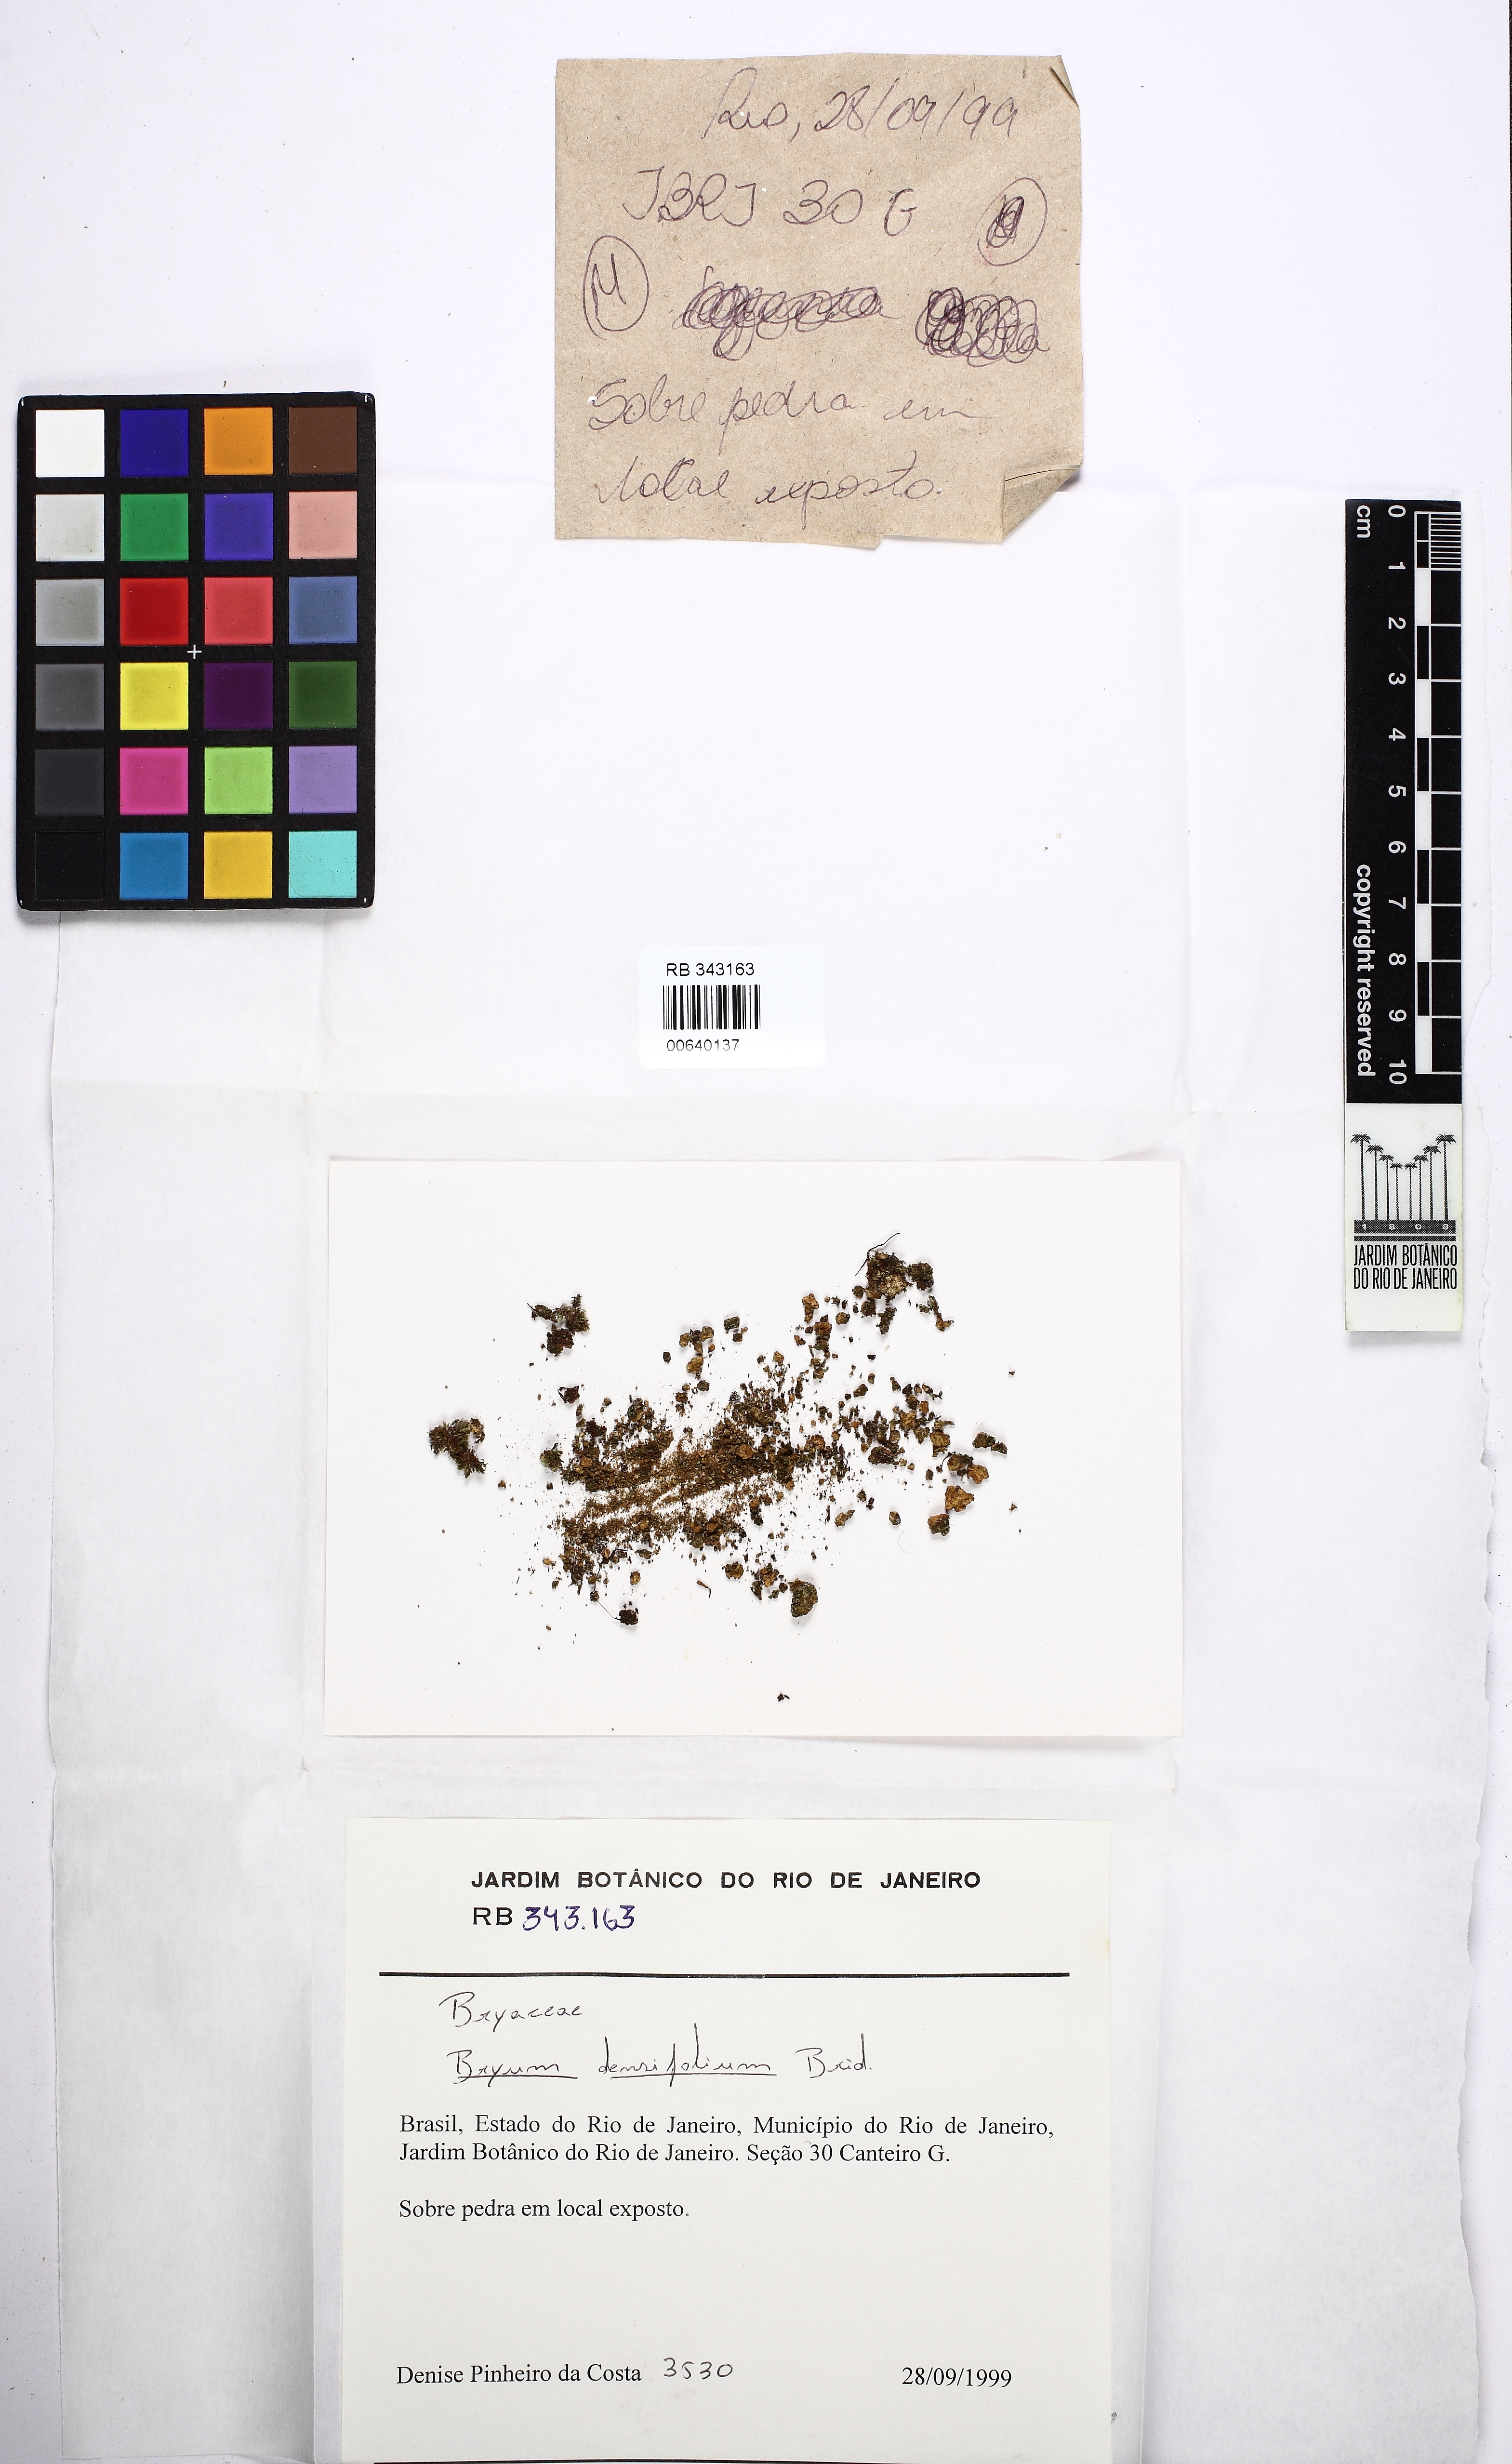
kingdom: Plantae
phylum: Bryophyta
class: Bryopsida
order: Bryales
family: Bryaceae
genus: Rosulabryum
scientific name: Rosulabryum densifolium
